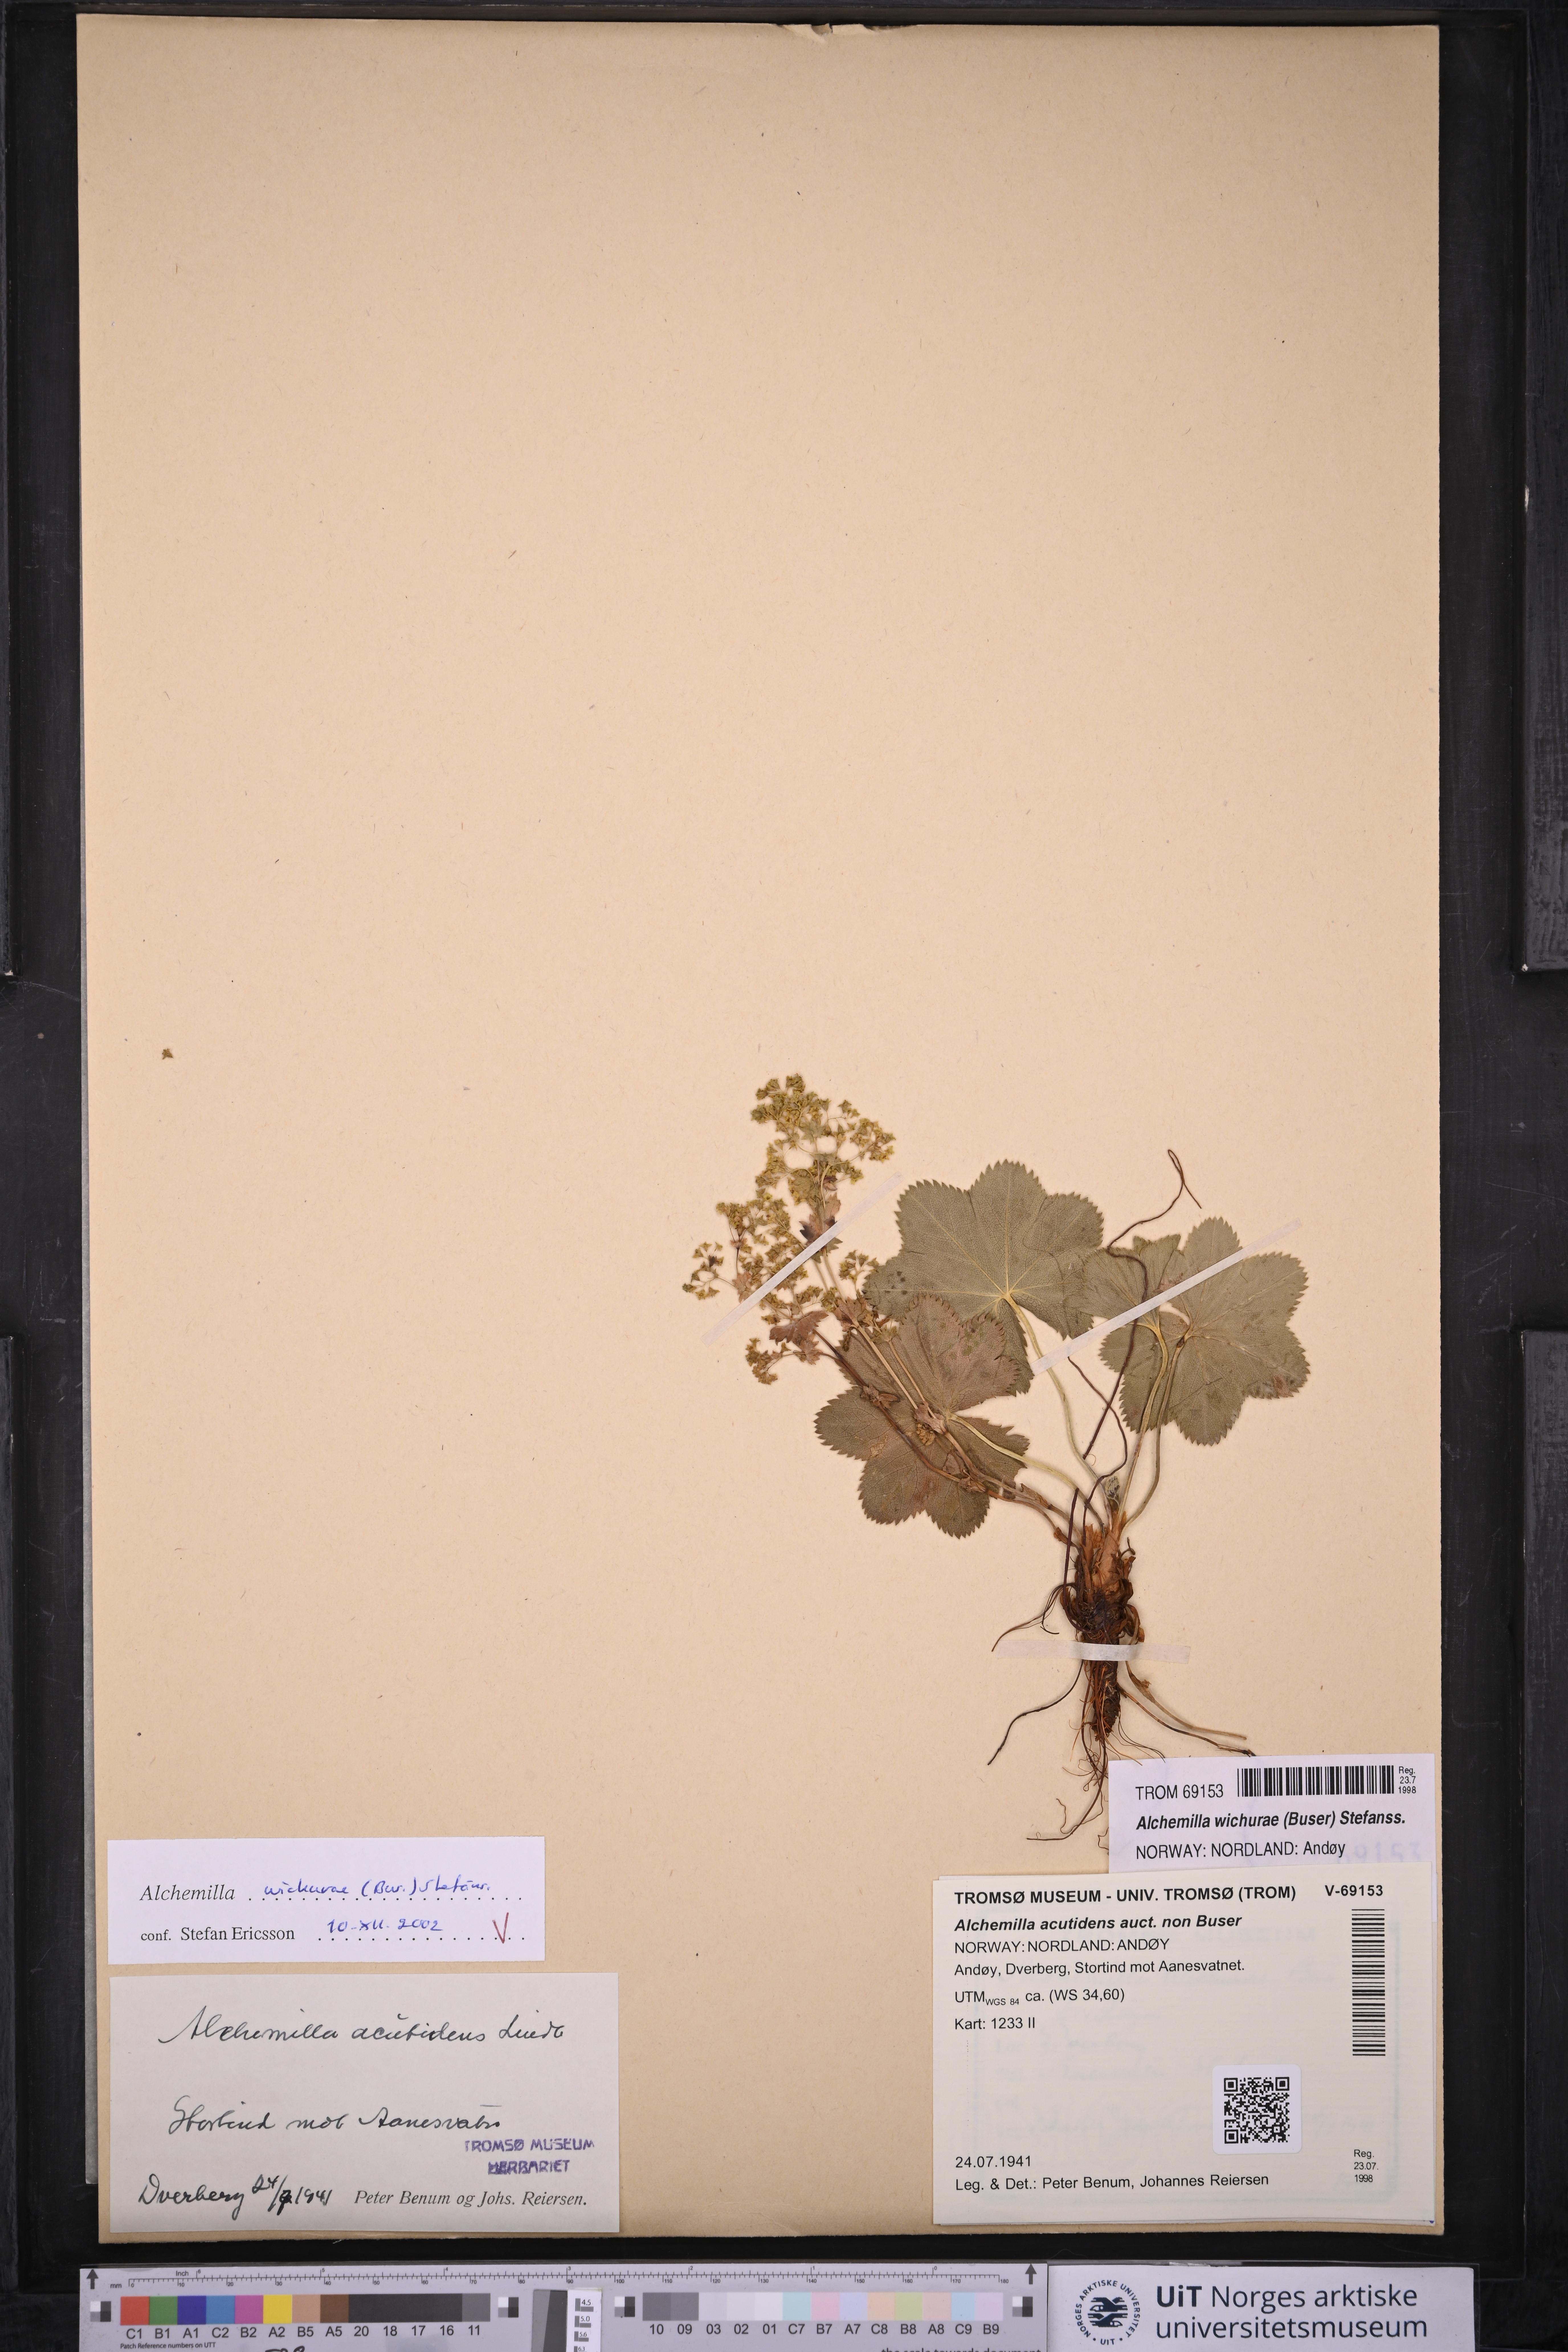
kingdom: Plantae
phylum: Tracheophyta
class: Magnoliopsida
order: Rosales
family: Rosaceae
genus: Alchemilla
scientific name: Alchemilla wichurae
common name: Rock lady's mantle
